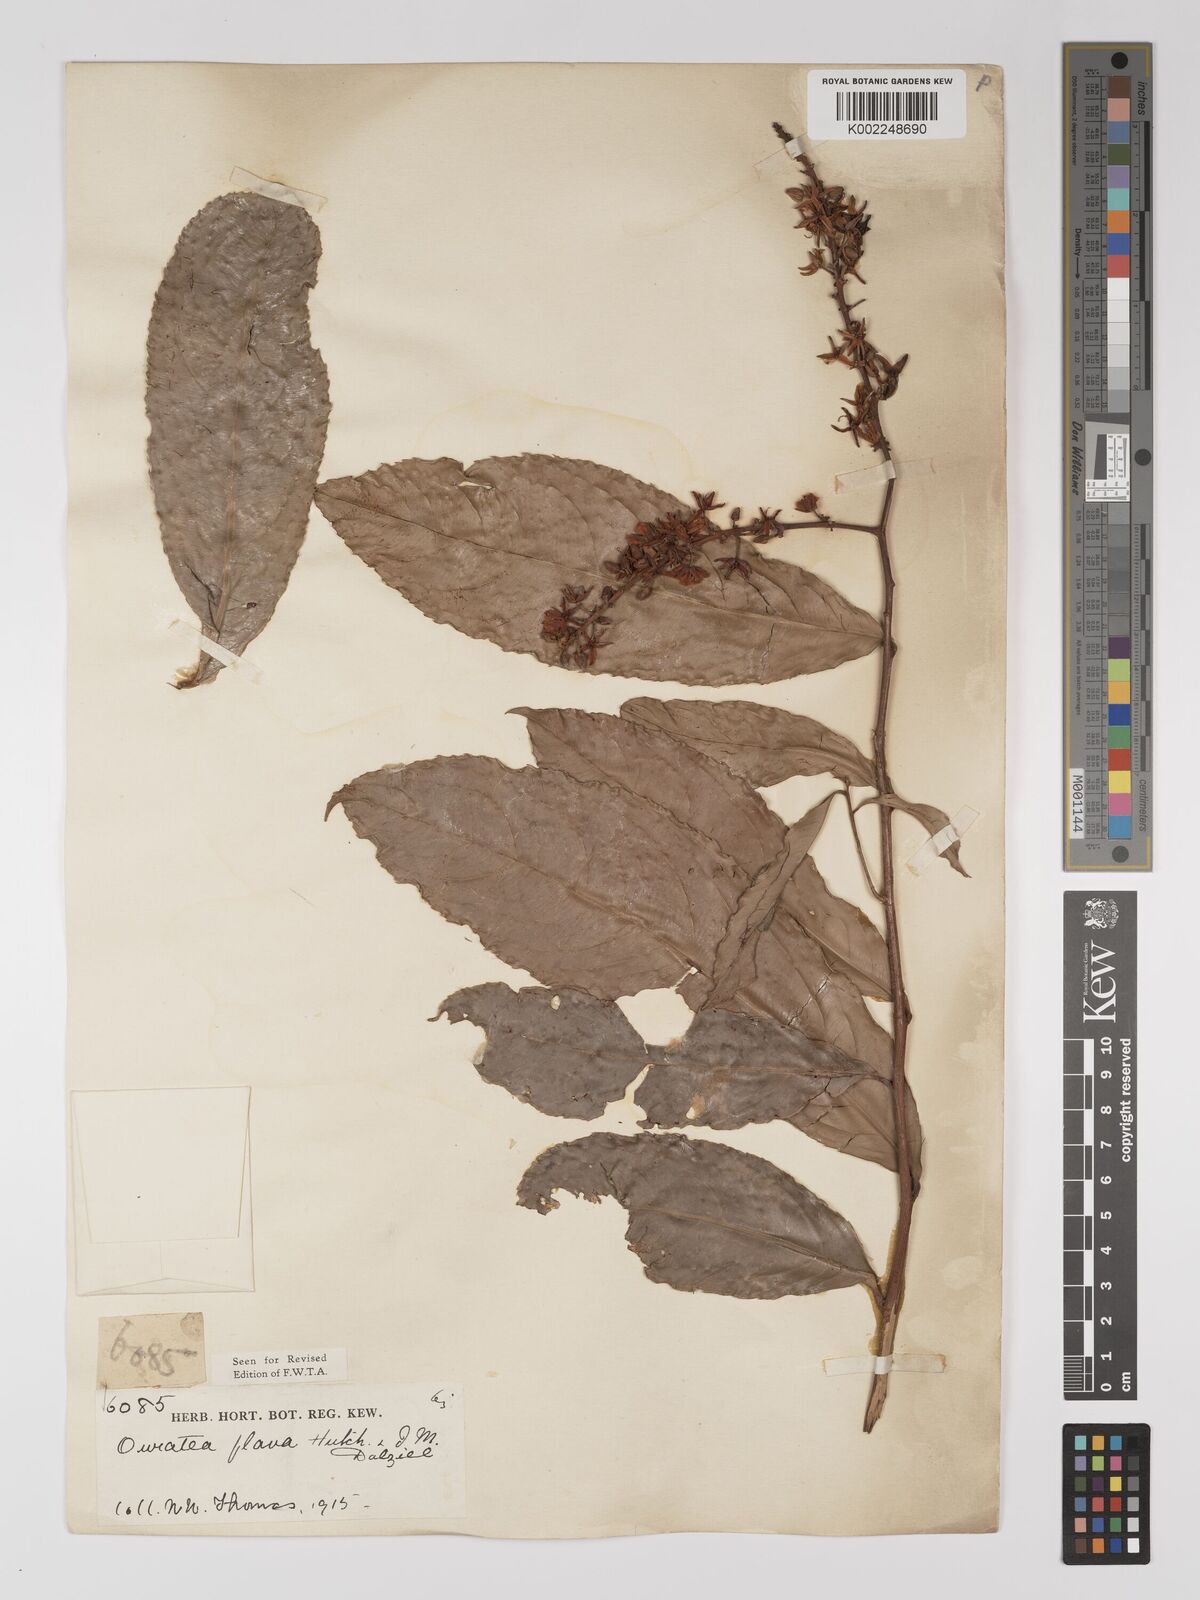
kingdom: Plantae
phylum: Tracheophyta
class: Magnoliopsida
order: Malpighiales
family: Ochnaceae
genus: Campylospermum
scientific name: Campylospermum flavum
